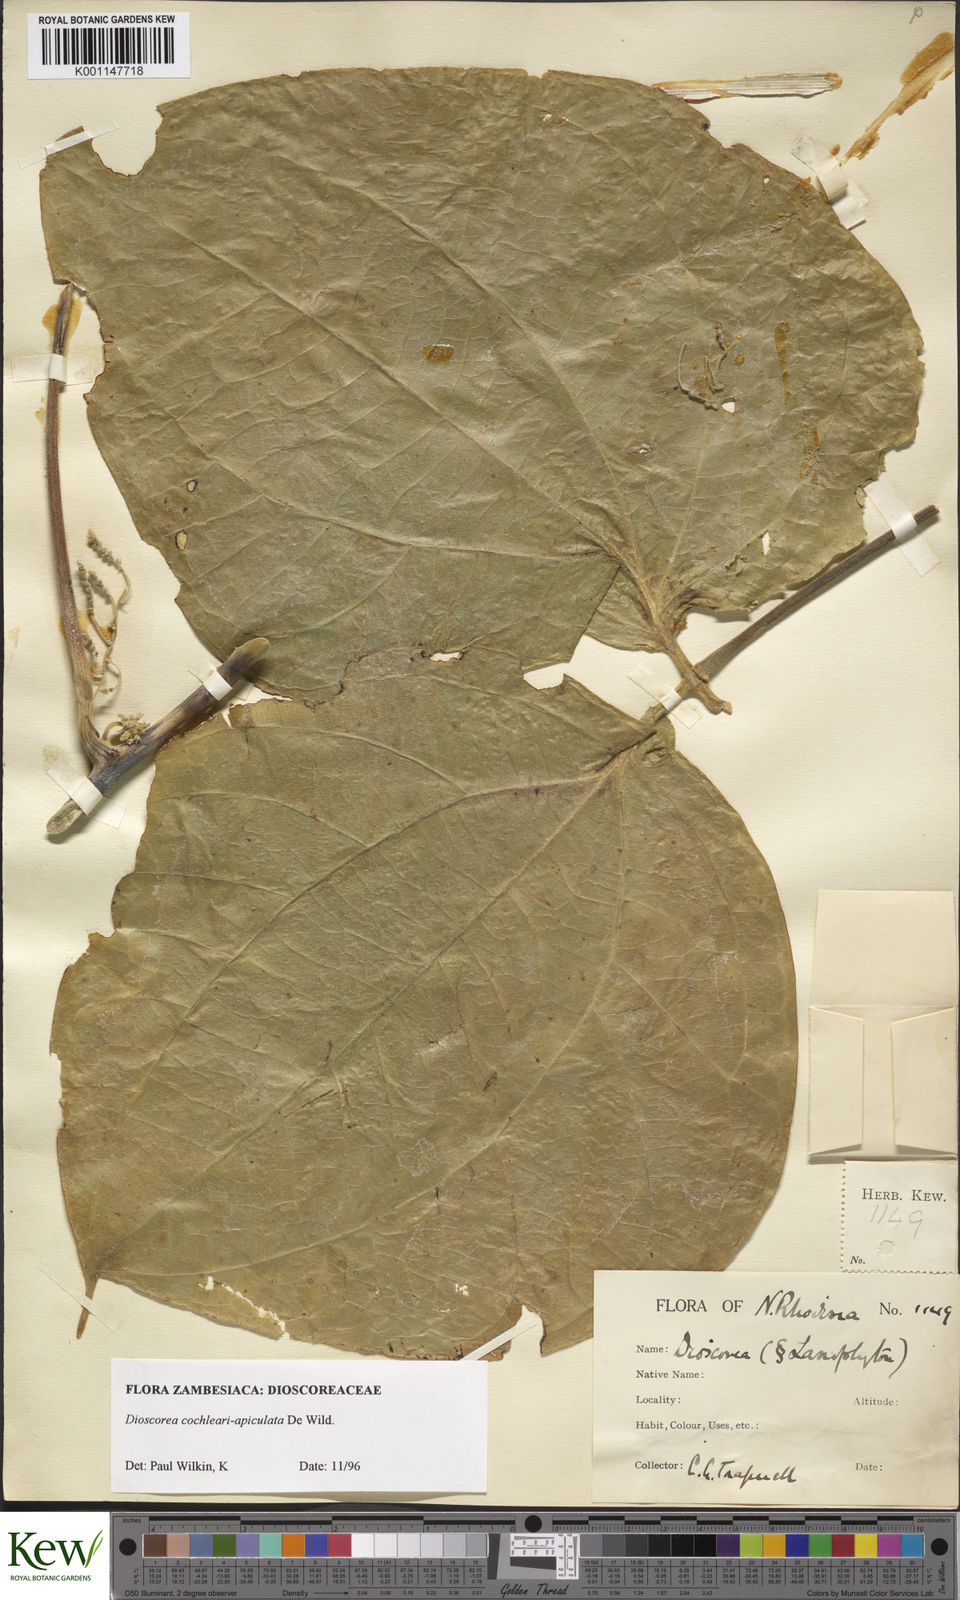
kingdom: Plantae
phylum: Tracheophyta
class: Liliopsida
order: Dioscoreales
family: Dioscoreaceae
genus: Dioscorea
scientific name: Dioscorea cochleariapiculata
